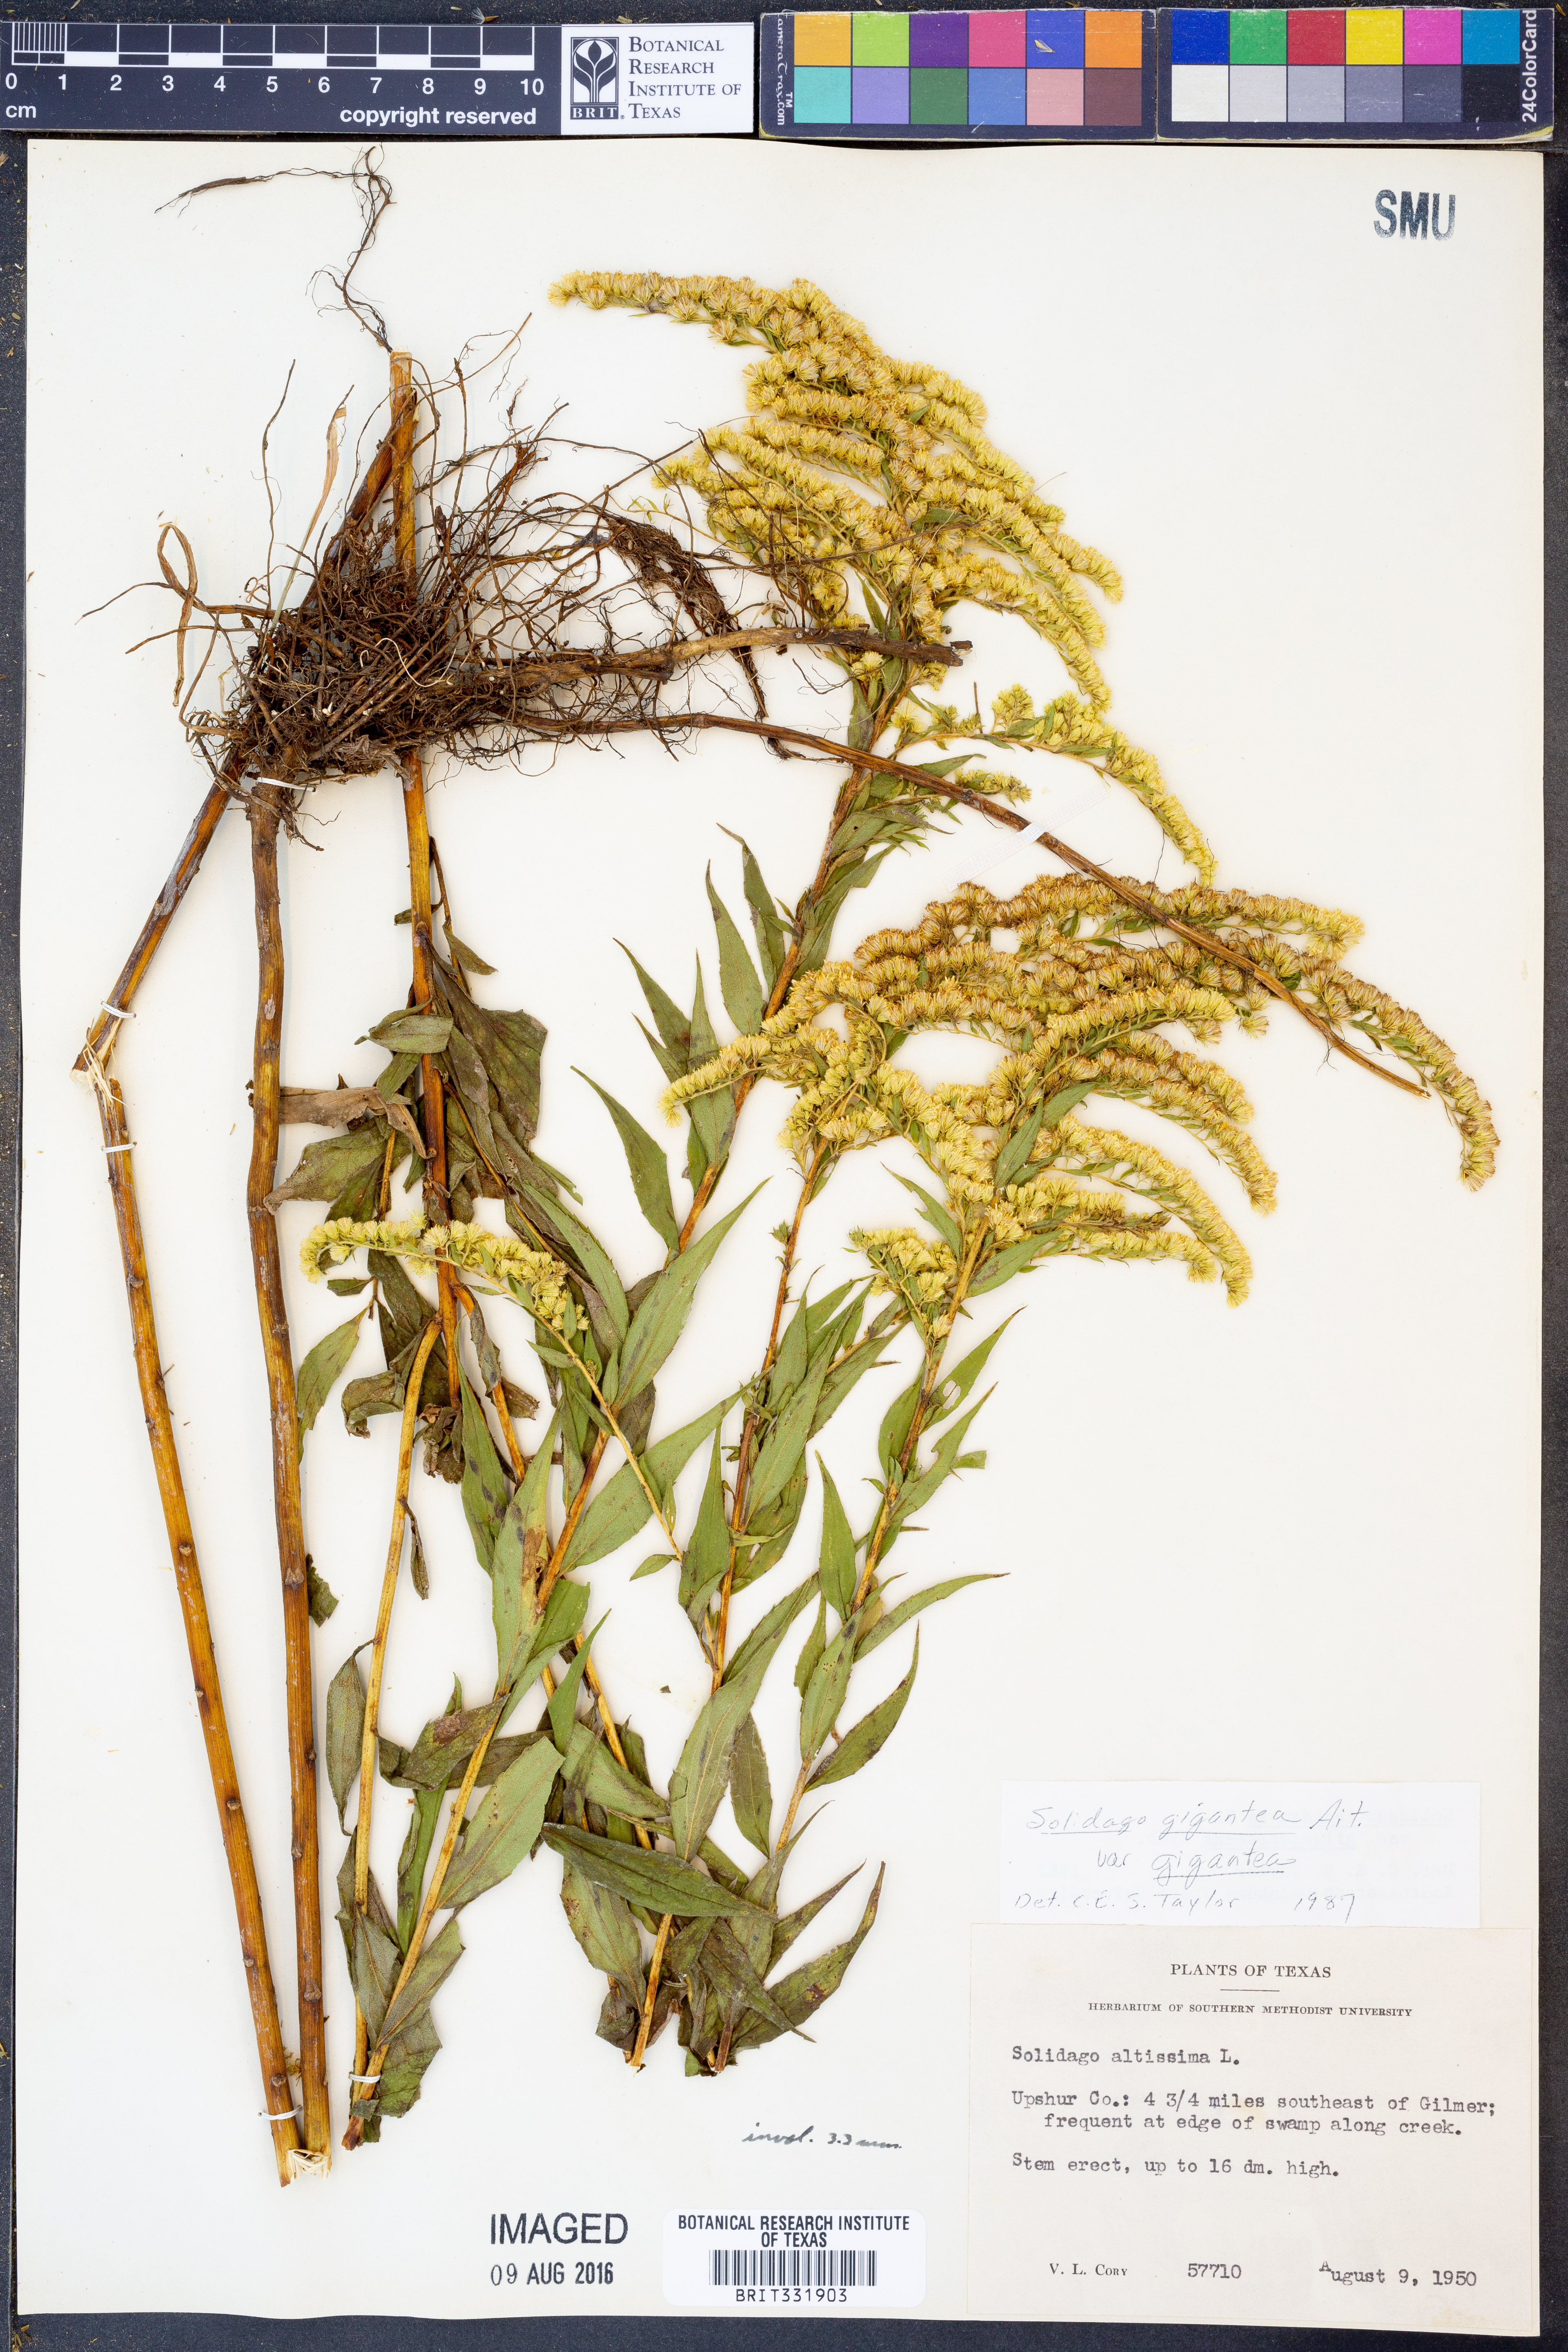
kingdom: Plantae
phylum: Tracheophyta
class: Magnoliopsida
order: Asterales
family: Asteraceae
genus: Solidago
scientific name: Solidago gigantea
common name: Giant goldenrod
